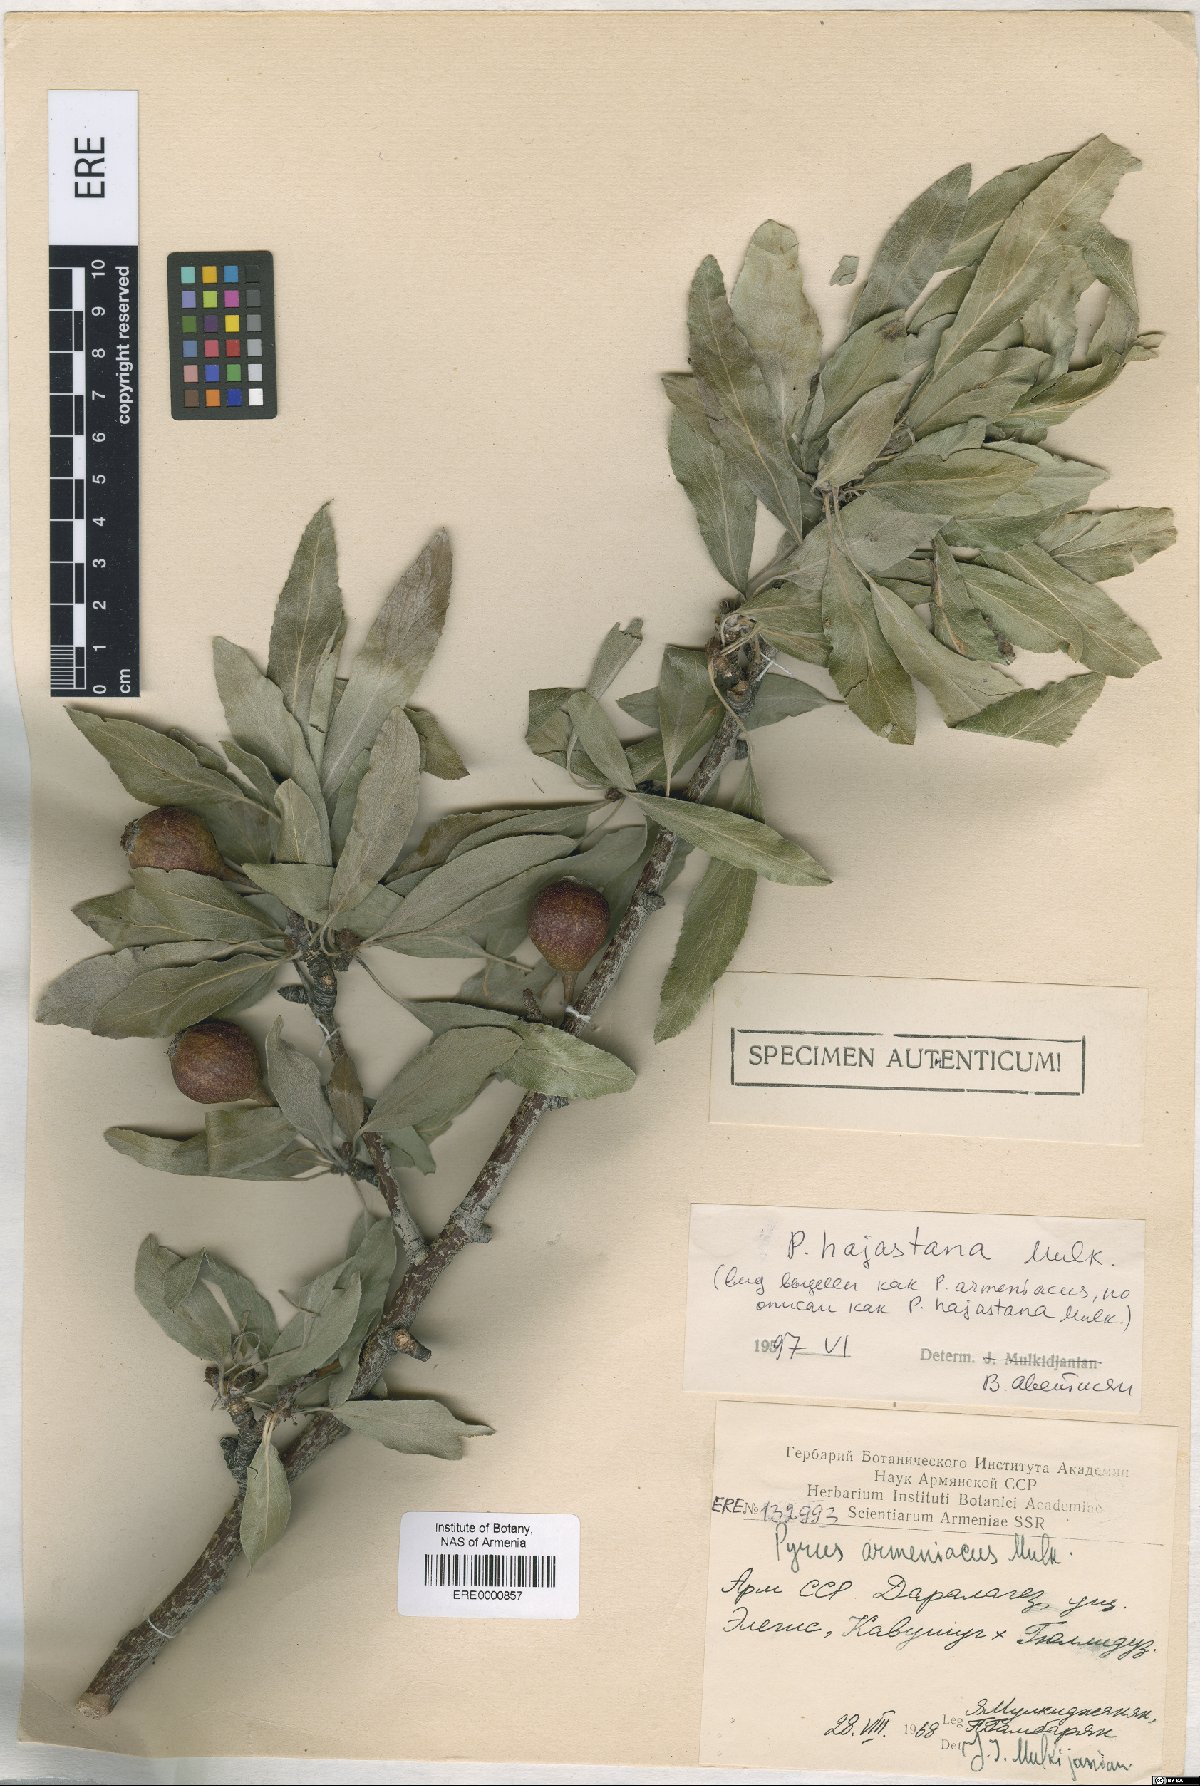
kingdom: Plantae
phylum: Tracheophyta
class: Magnoliopsida
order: Rosales
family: Rosaceae
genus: Pyrus
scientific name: Pyrus hajastana
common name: Hayastanyan pear
